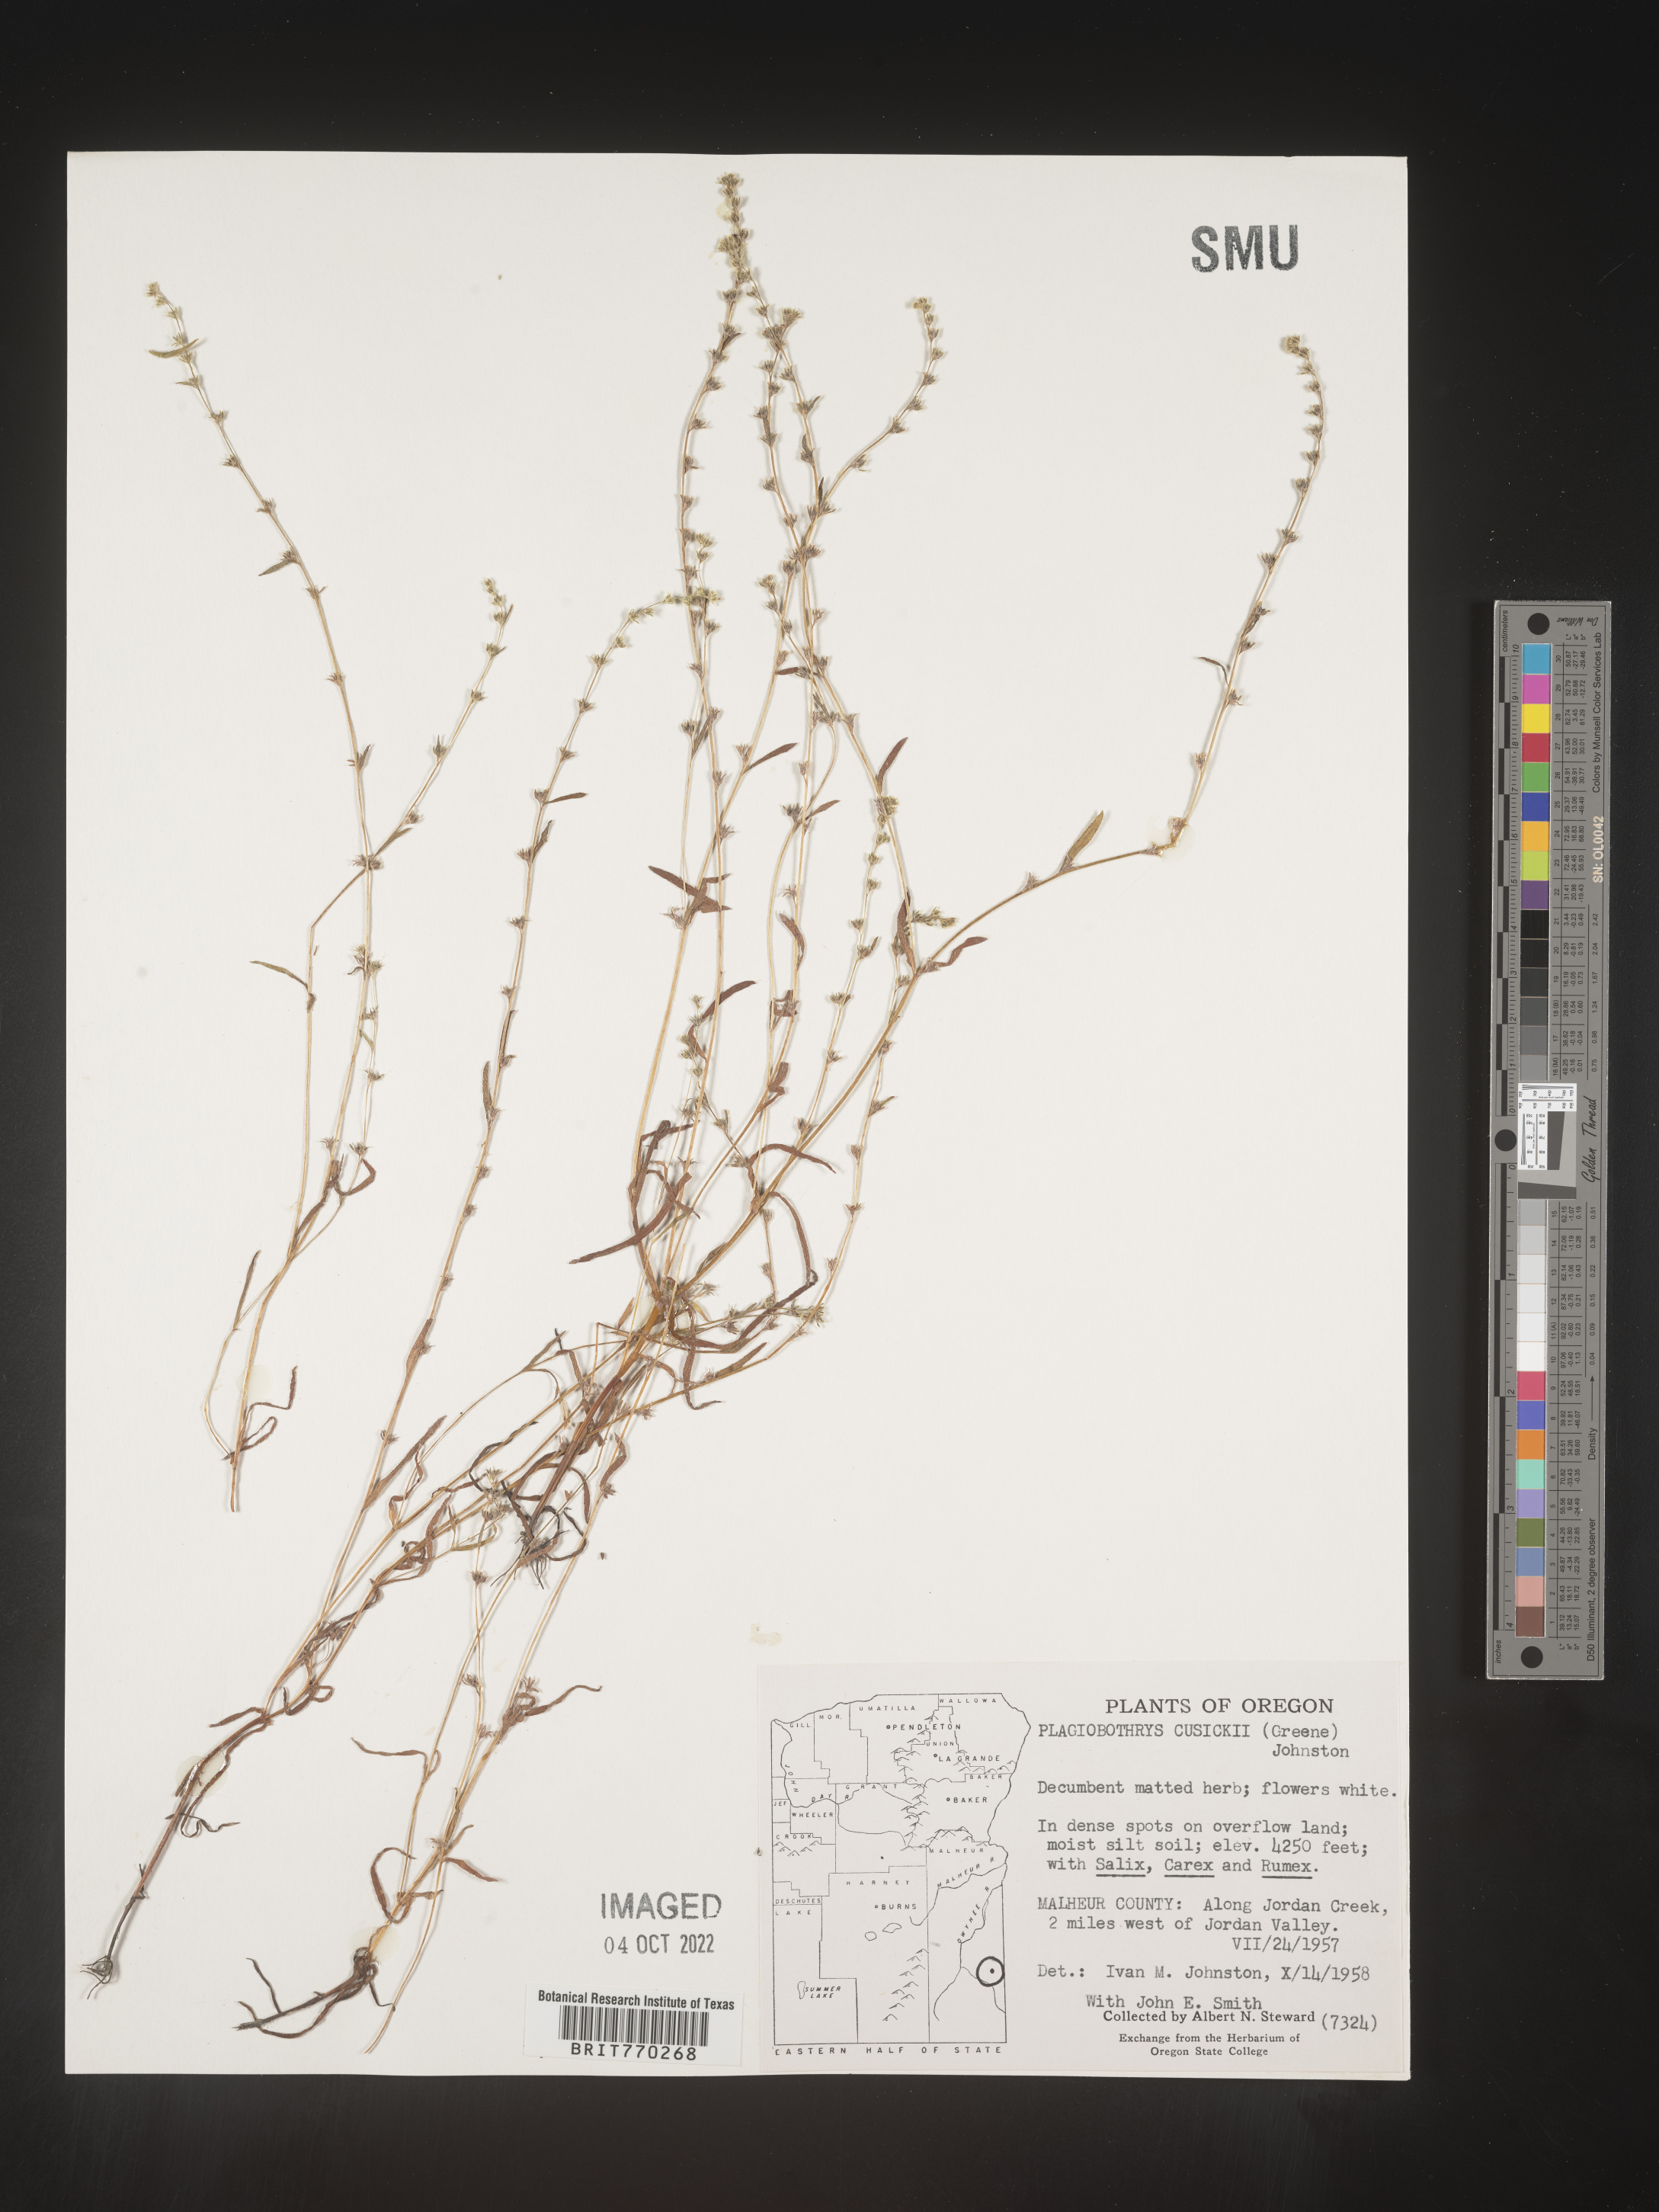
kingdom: Plantae
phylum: Tracheophyta
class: Magnoliopsida
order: Boraginales
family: Boraginaceae
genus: Plagiobothrys
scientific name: Plagiobothrys
